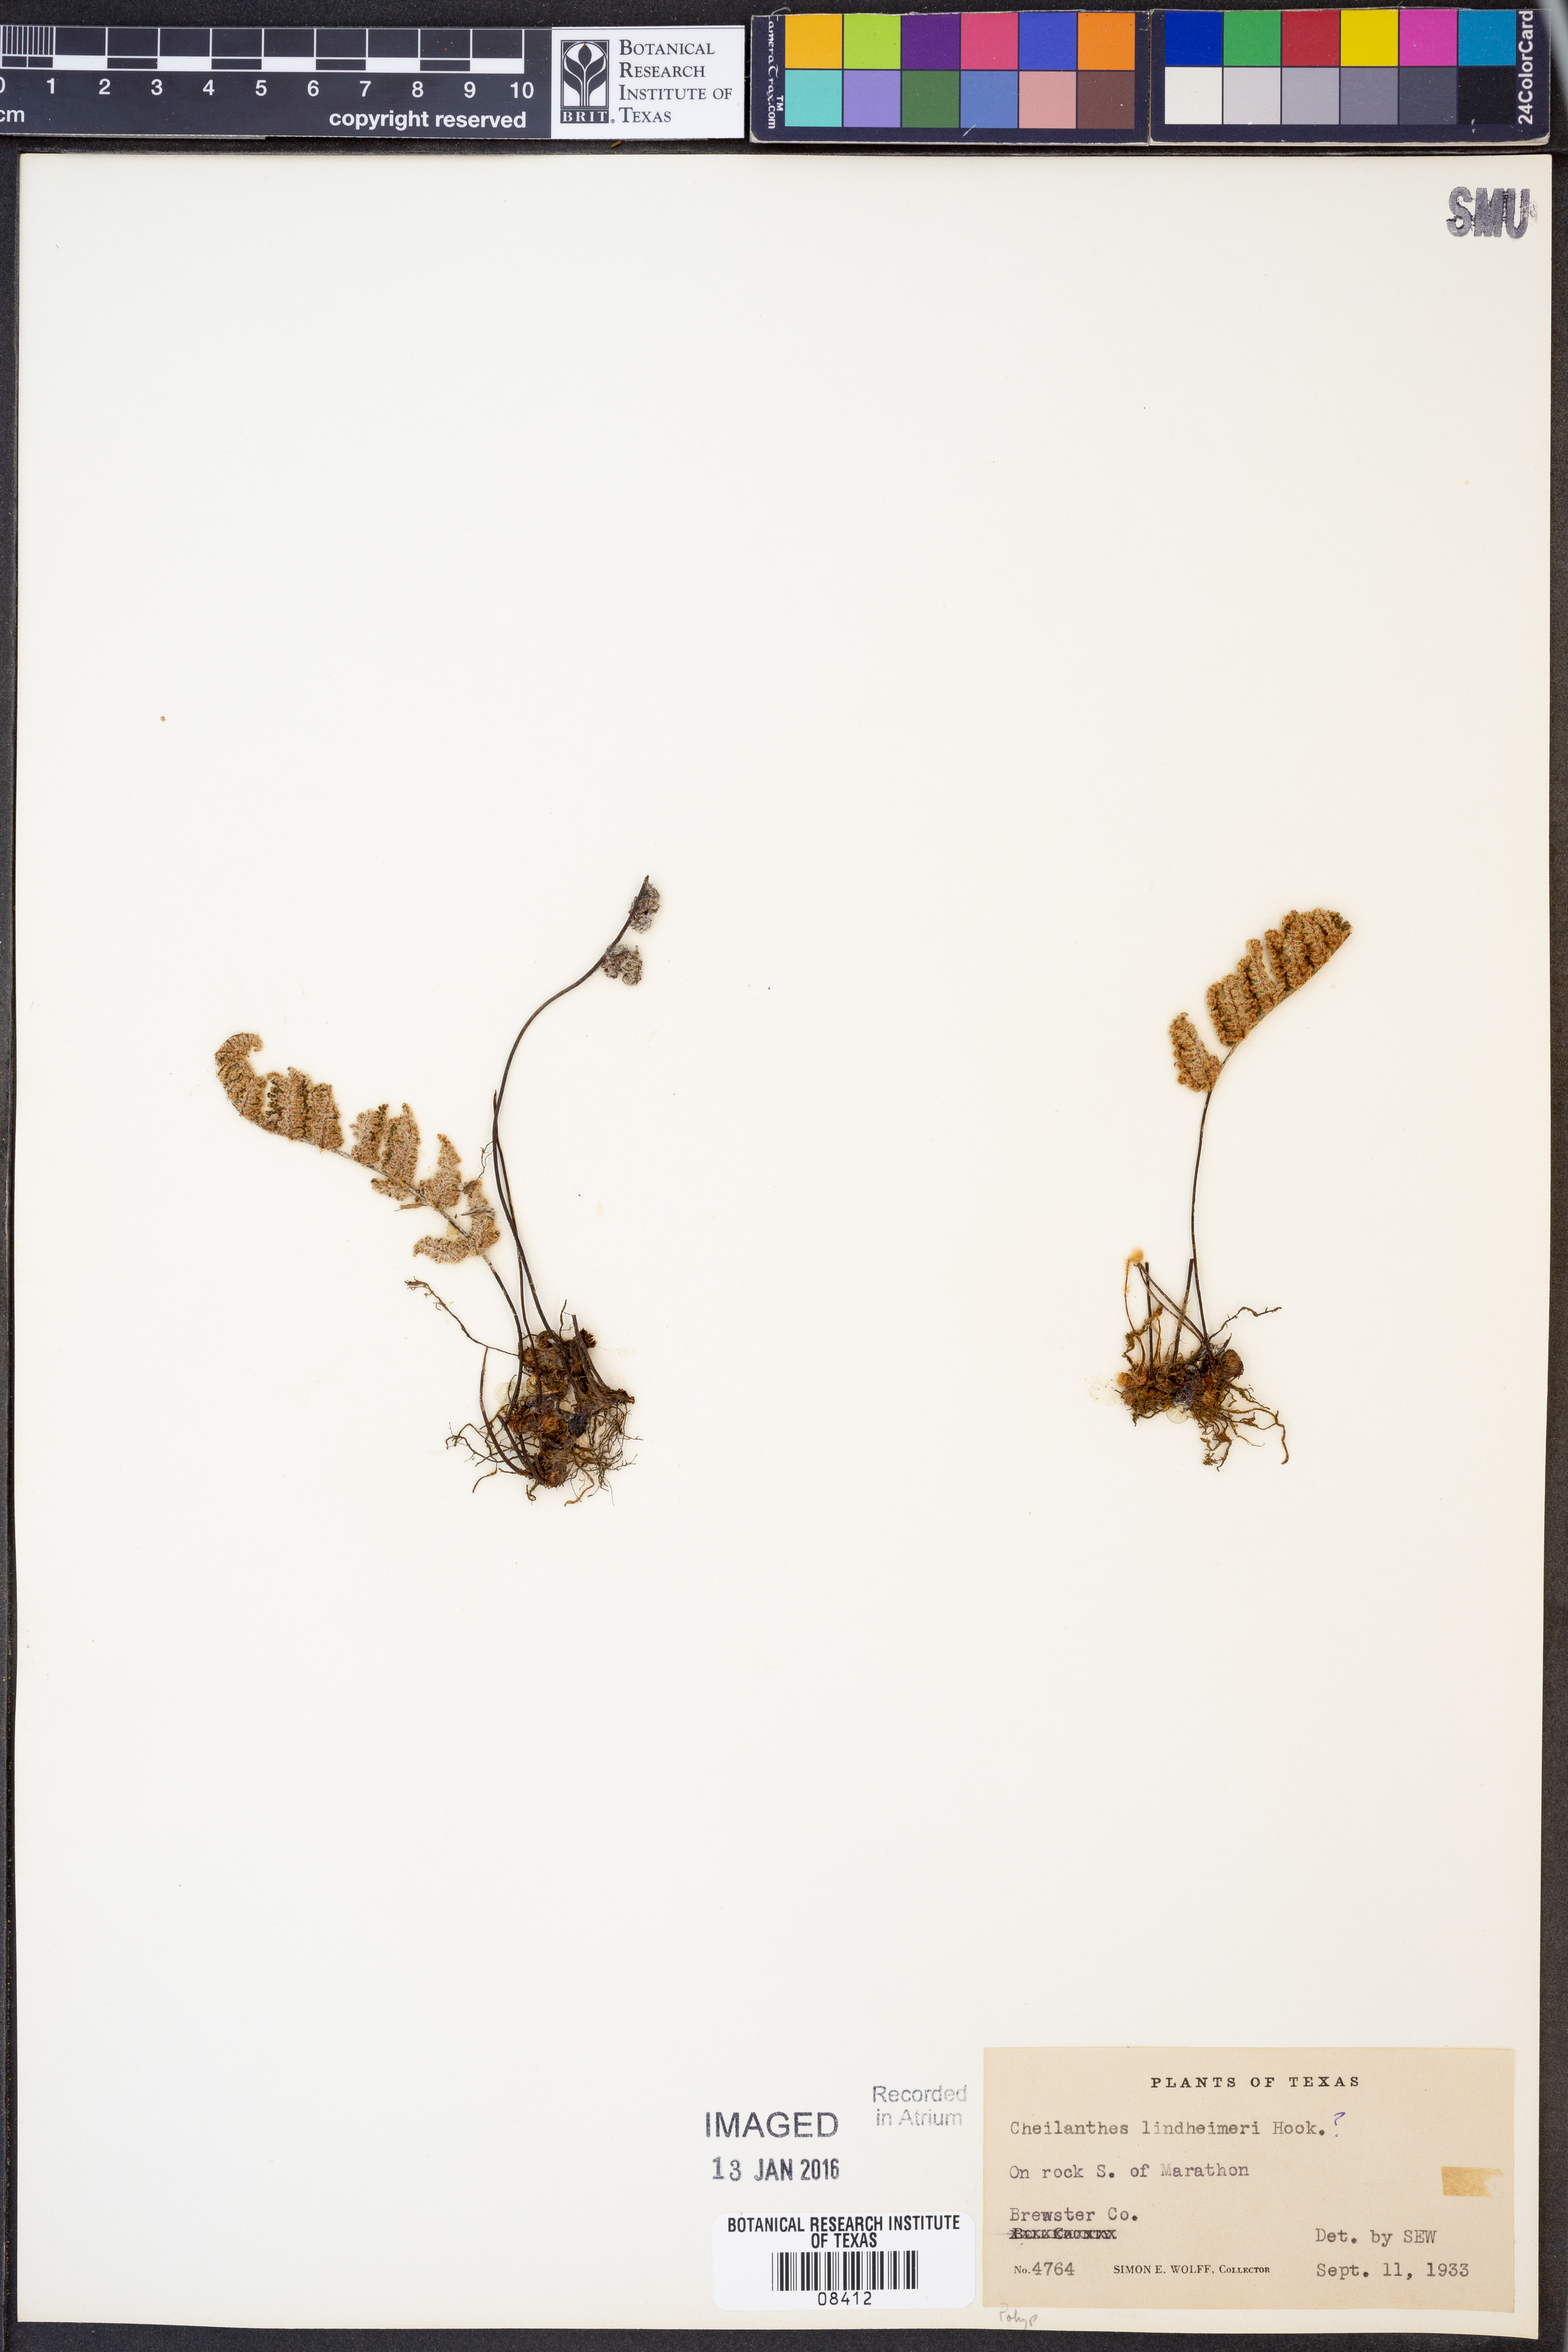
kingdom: Plantae
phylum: Tracheophyta
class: Polypodiopsida
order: Polypodiales
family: Pteridaceae
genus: Myriopteris
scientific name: Myriopteris lindheimeri
